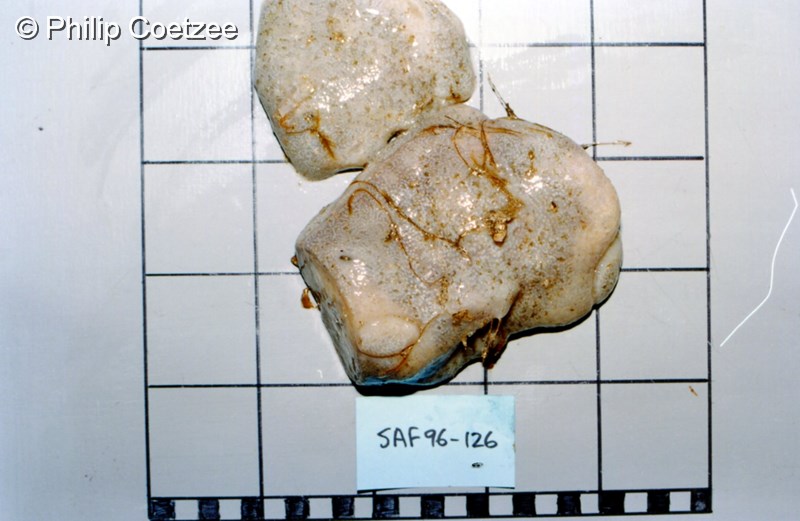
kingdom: Animalia
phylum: Chordata
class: Ascidiacea
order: Aplousobranchia
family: Holozoidae
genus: Distaplia
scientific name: Distaplia skoogi
